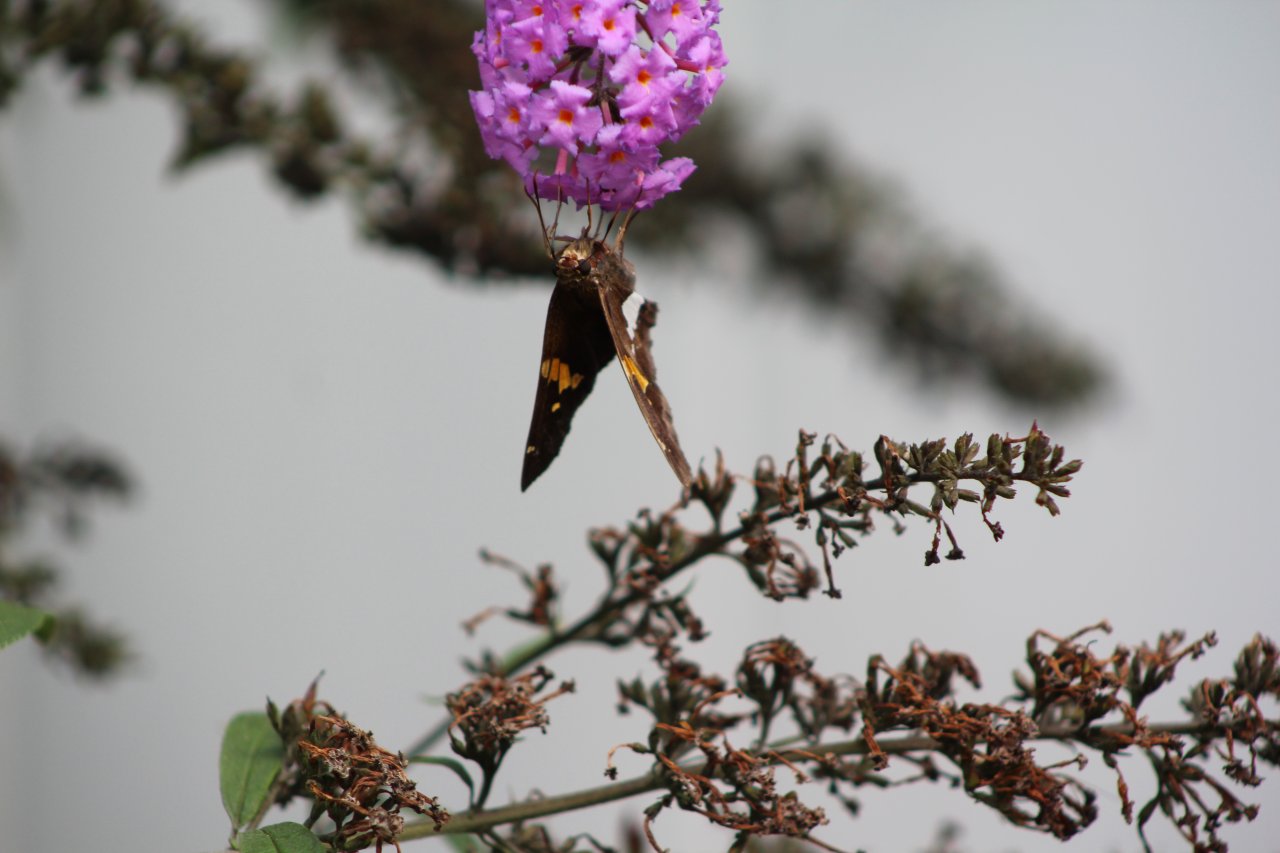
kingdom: Animalia
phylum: Arthropoda
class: Insecta
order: Lepidoptera
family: Hesperiidae
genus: Epargyreus
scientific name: Epargyreus clarus
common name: Silver-spotted Skipper
